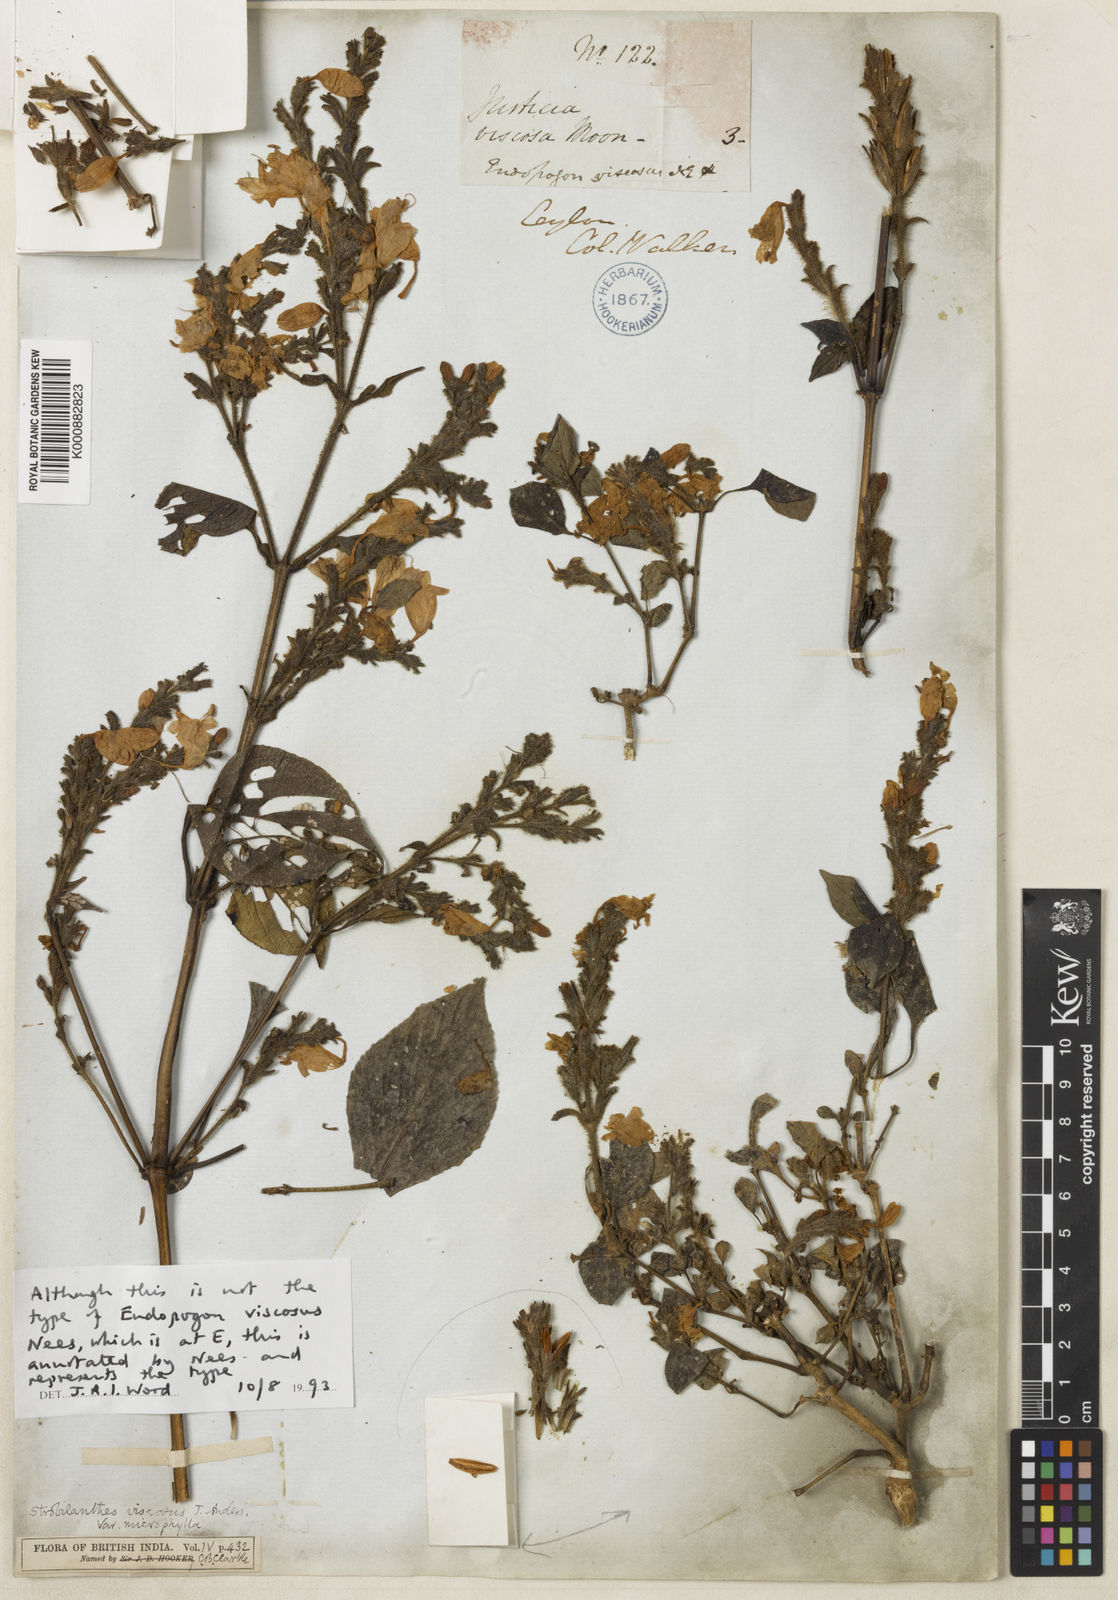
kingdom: Plantae
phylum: Tracheophyta
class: Magnoliopsida
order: Lamiales
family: Acanthaceae
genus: Strobilanthes
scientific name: Strobilanthes viscosa
